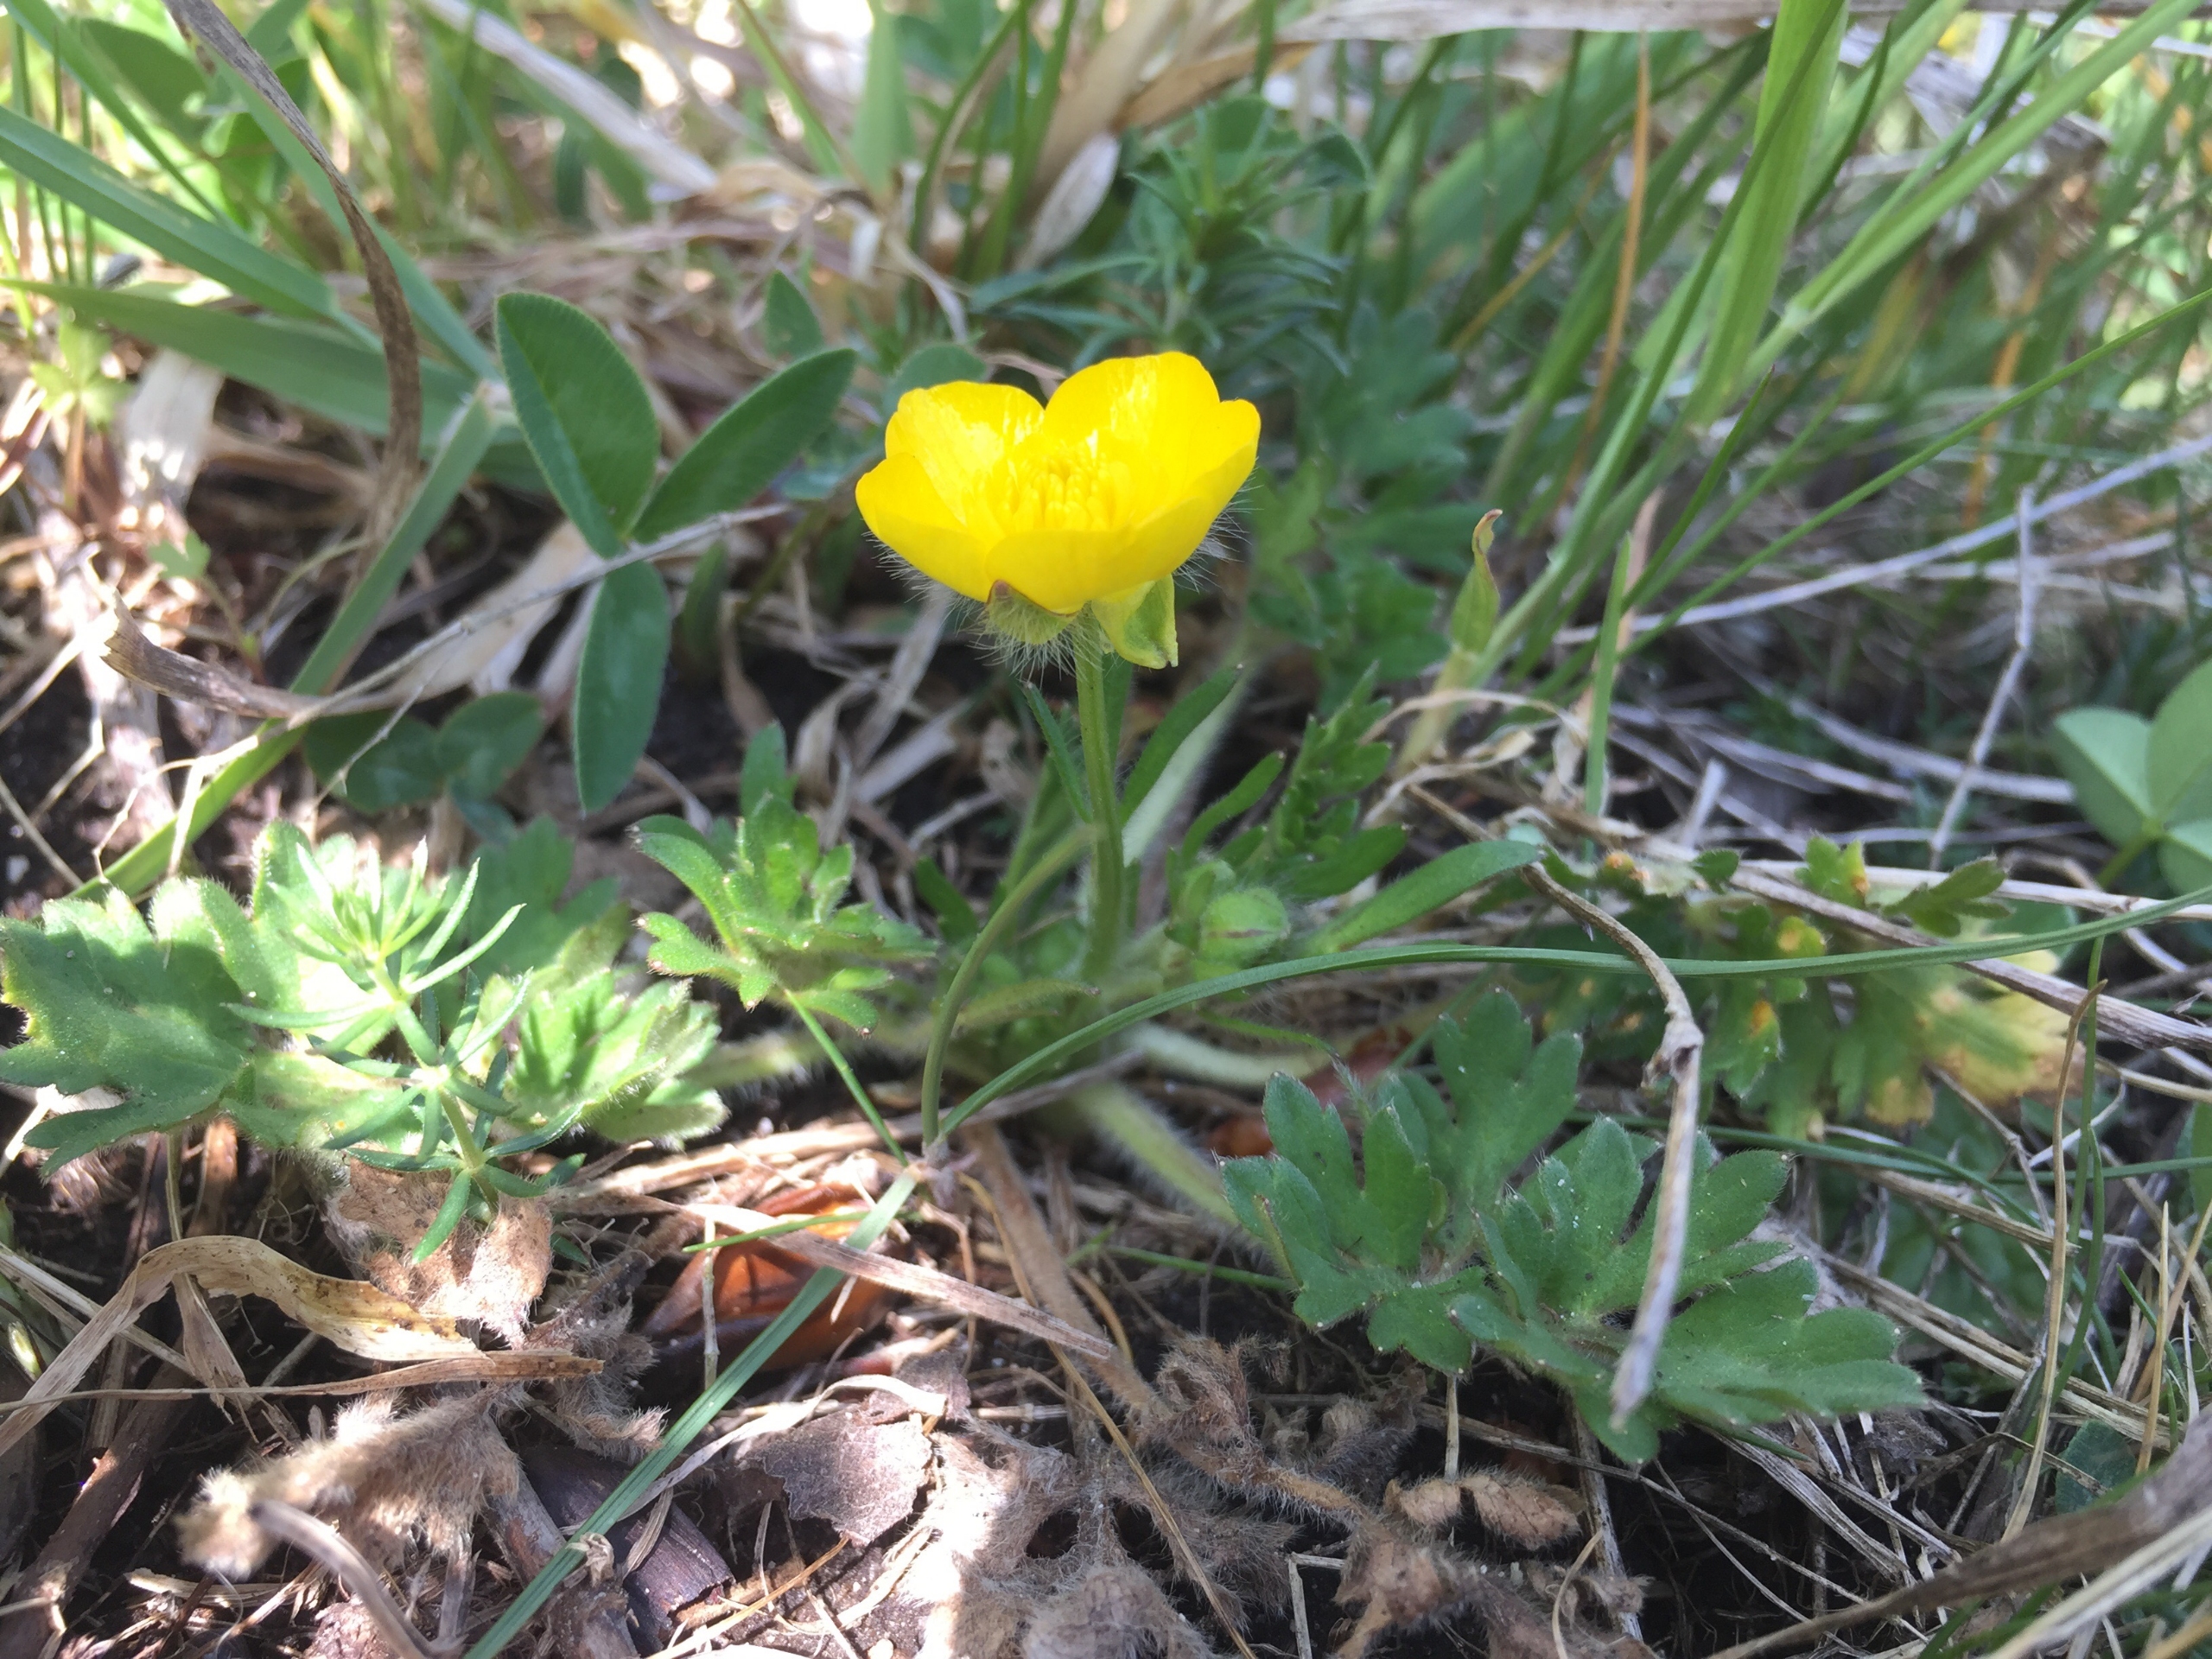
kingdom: Plantae
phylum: Tracheophyta
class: Magnoliopsida
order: Ranunculales
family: Ranunculaceae
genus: Ranunculus
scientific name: Ranunculus bulbosus
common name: Knold-ranunkel
